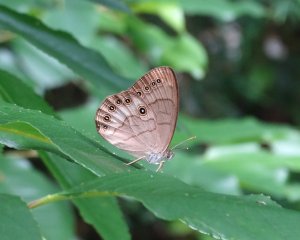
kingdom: Animalia
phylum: Arthropoda
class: Insecta
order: Lepidoptera
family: Nymphalidae
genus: Lethe
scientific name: Lethe eurydice
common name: Appalachian Eyed Brown
